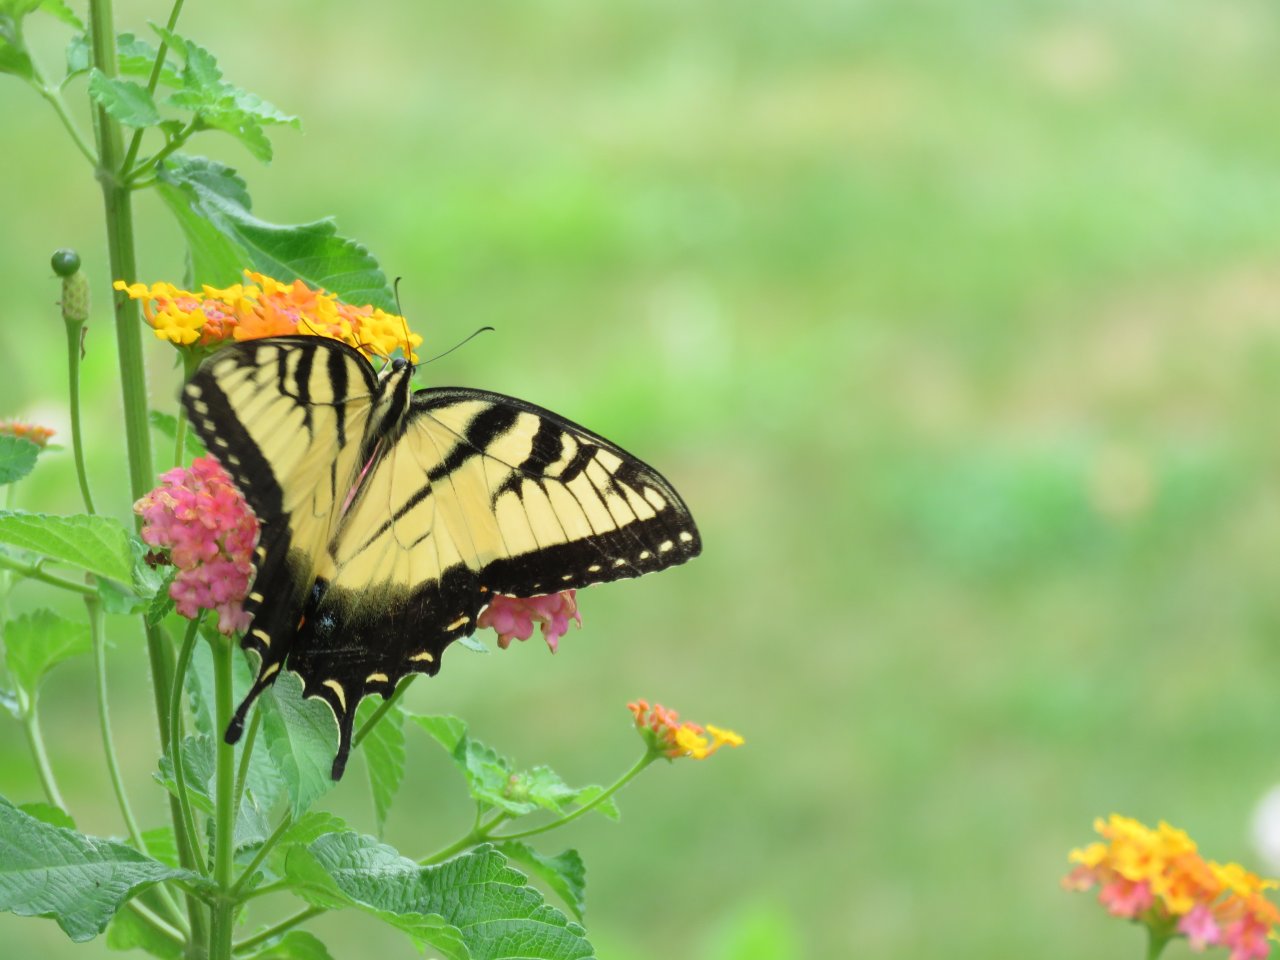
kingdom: Animalia
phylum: Arthropoda
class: Insecta
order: Lepidoptera
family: Papilionidae
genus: Pterourus
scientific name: Pterourus glaucus
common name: Eastern Tiger Swallowtail
